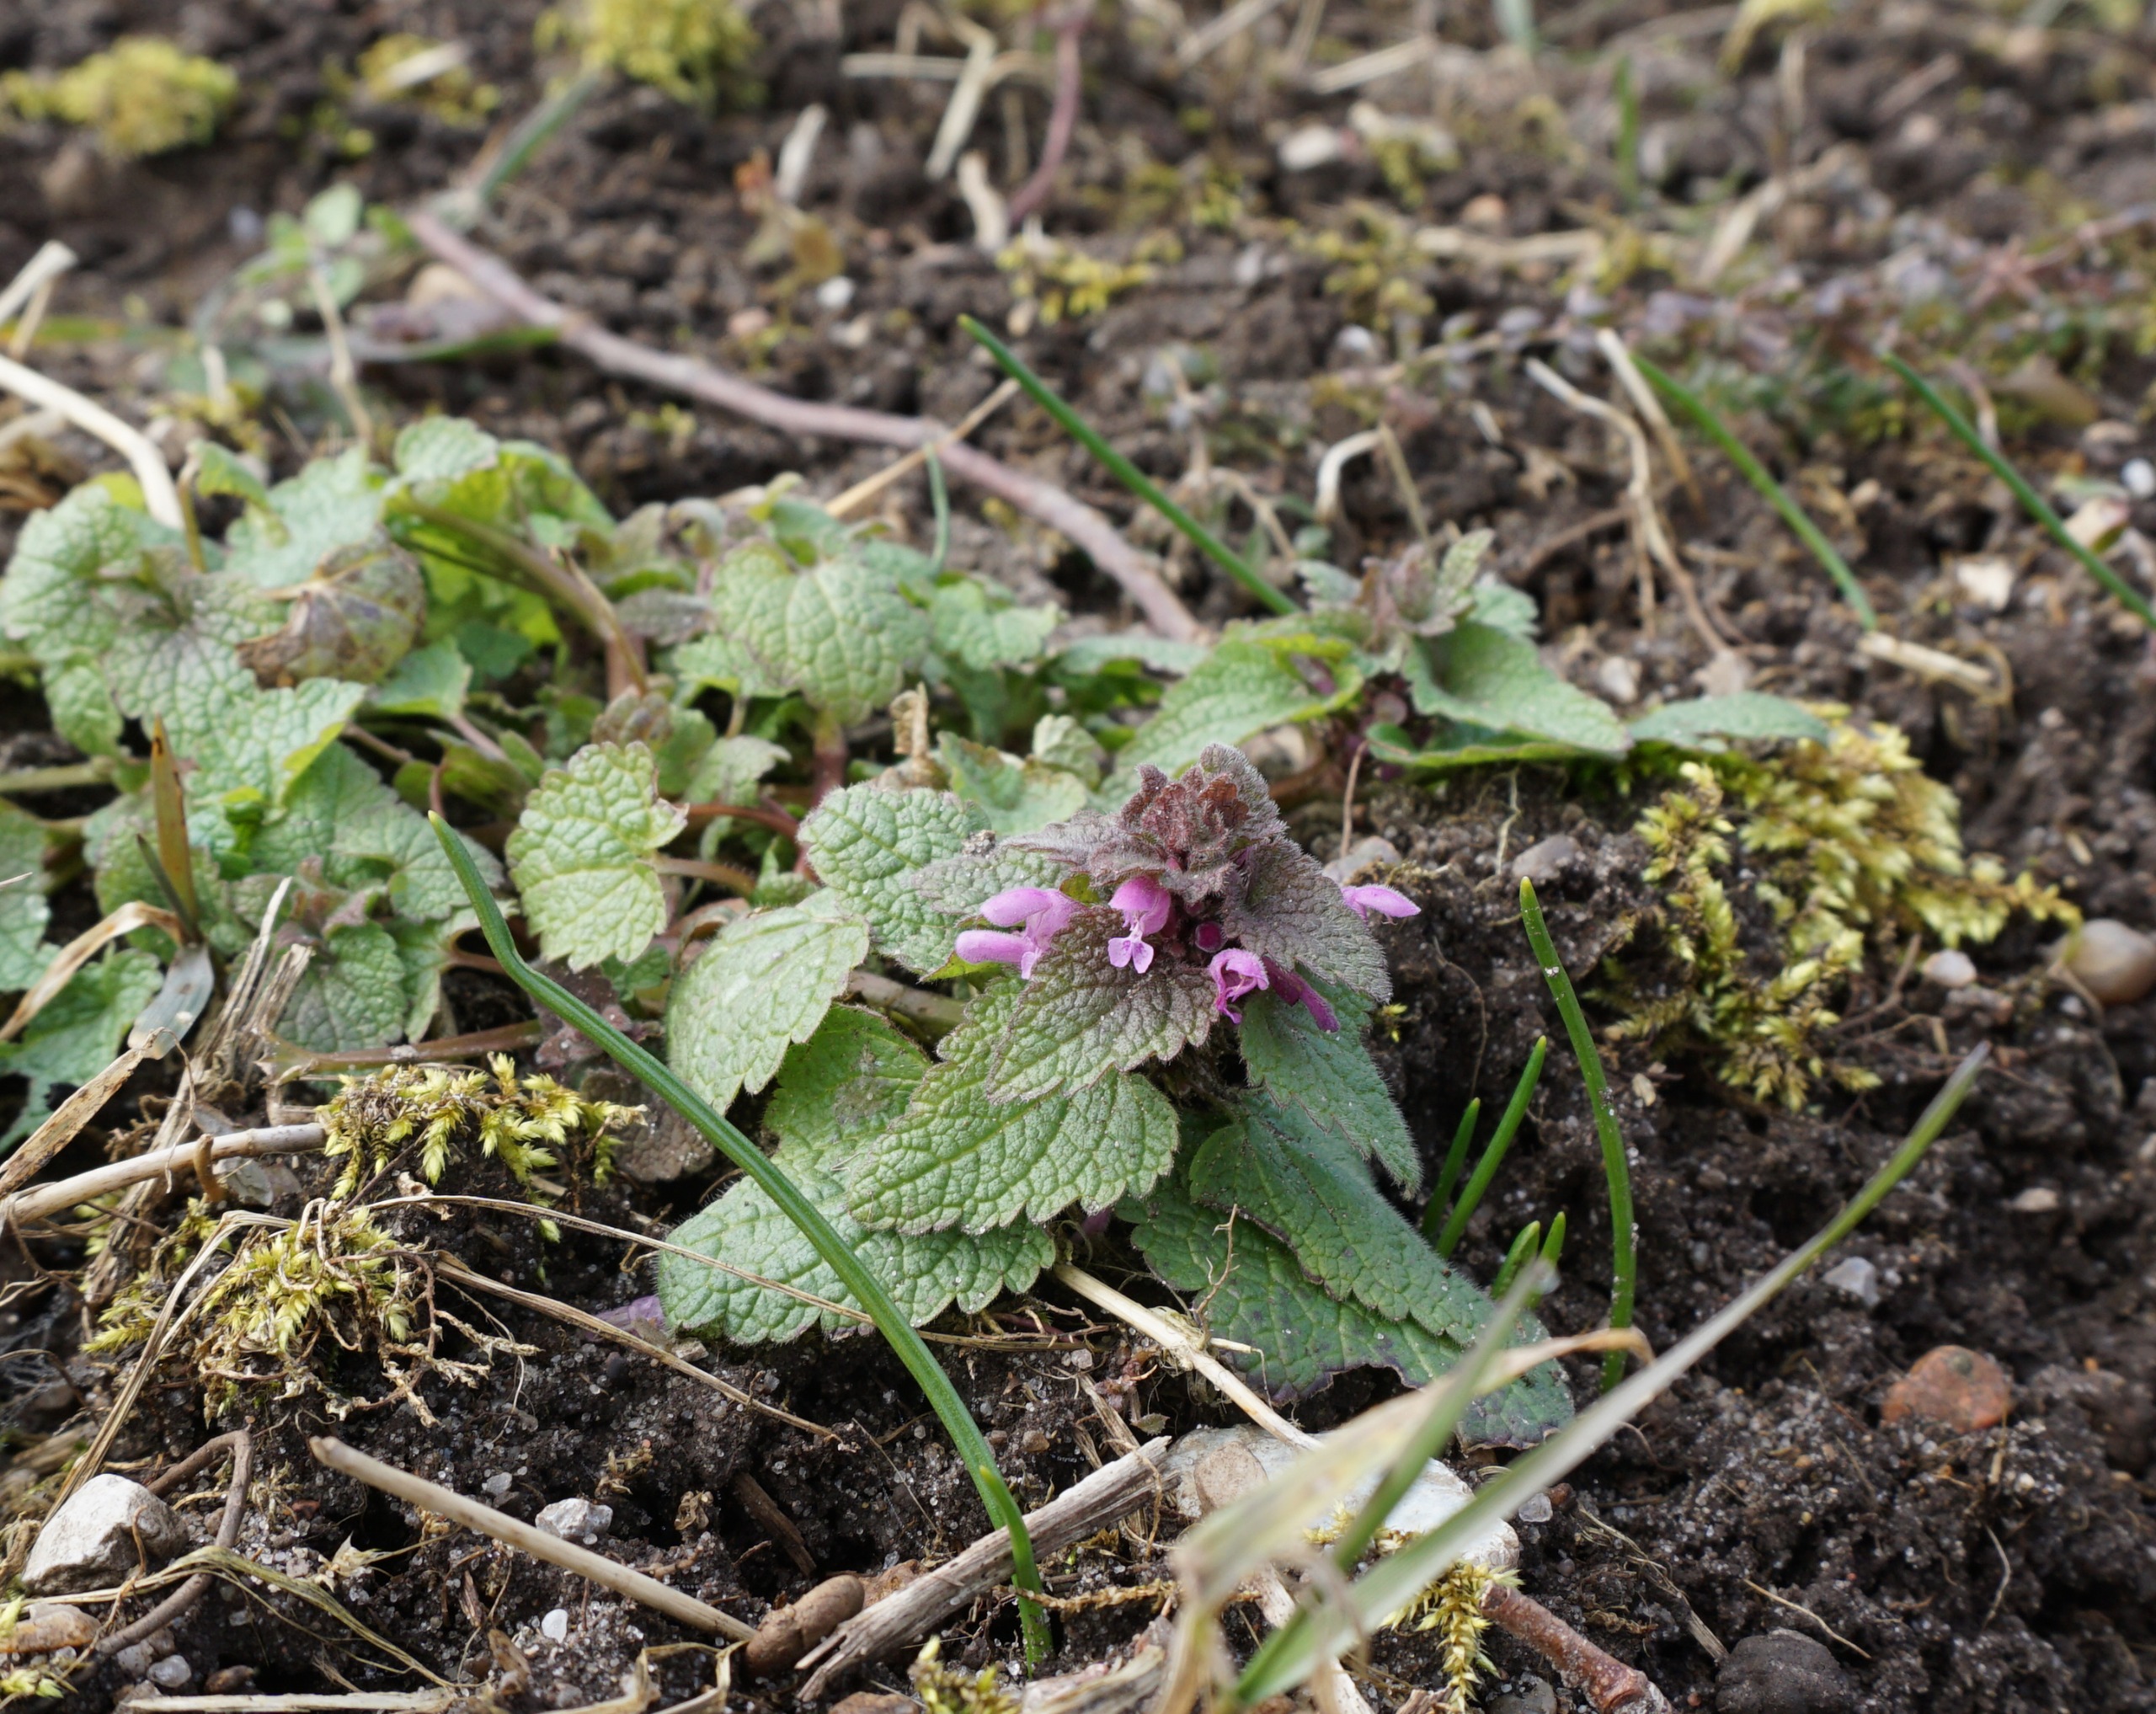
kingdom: Plantae
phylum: Tracheophyta
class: Magnoliopsida
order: Lamiales
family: Lamiaceae
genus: Lamium
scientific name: Lamium purpureum
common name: Rød tvetand
